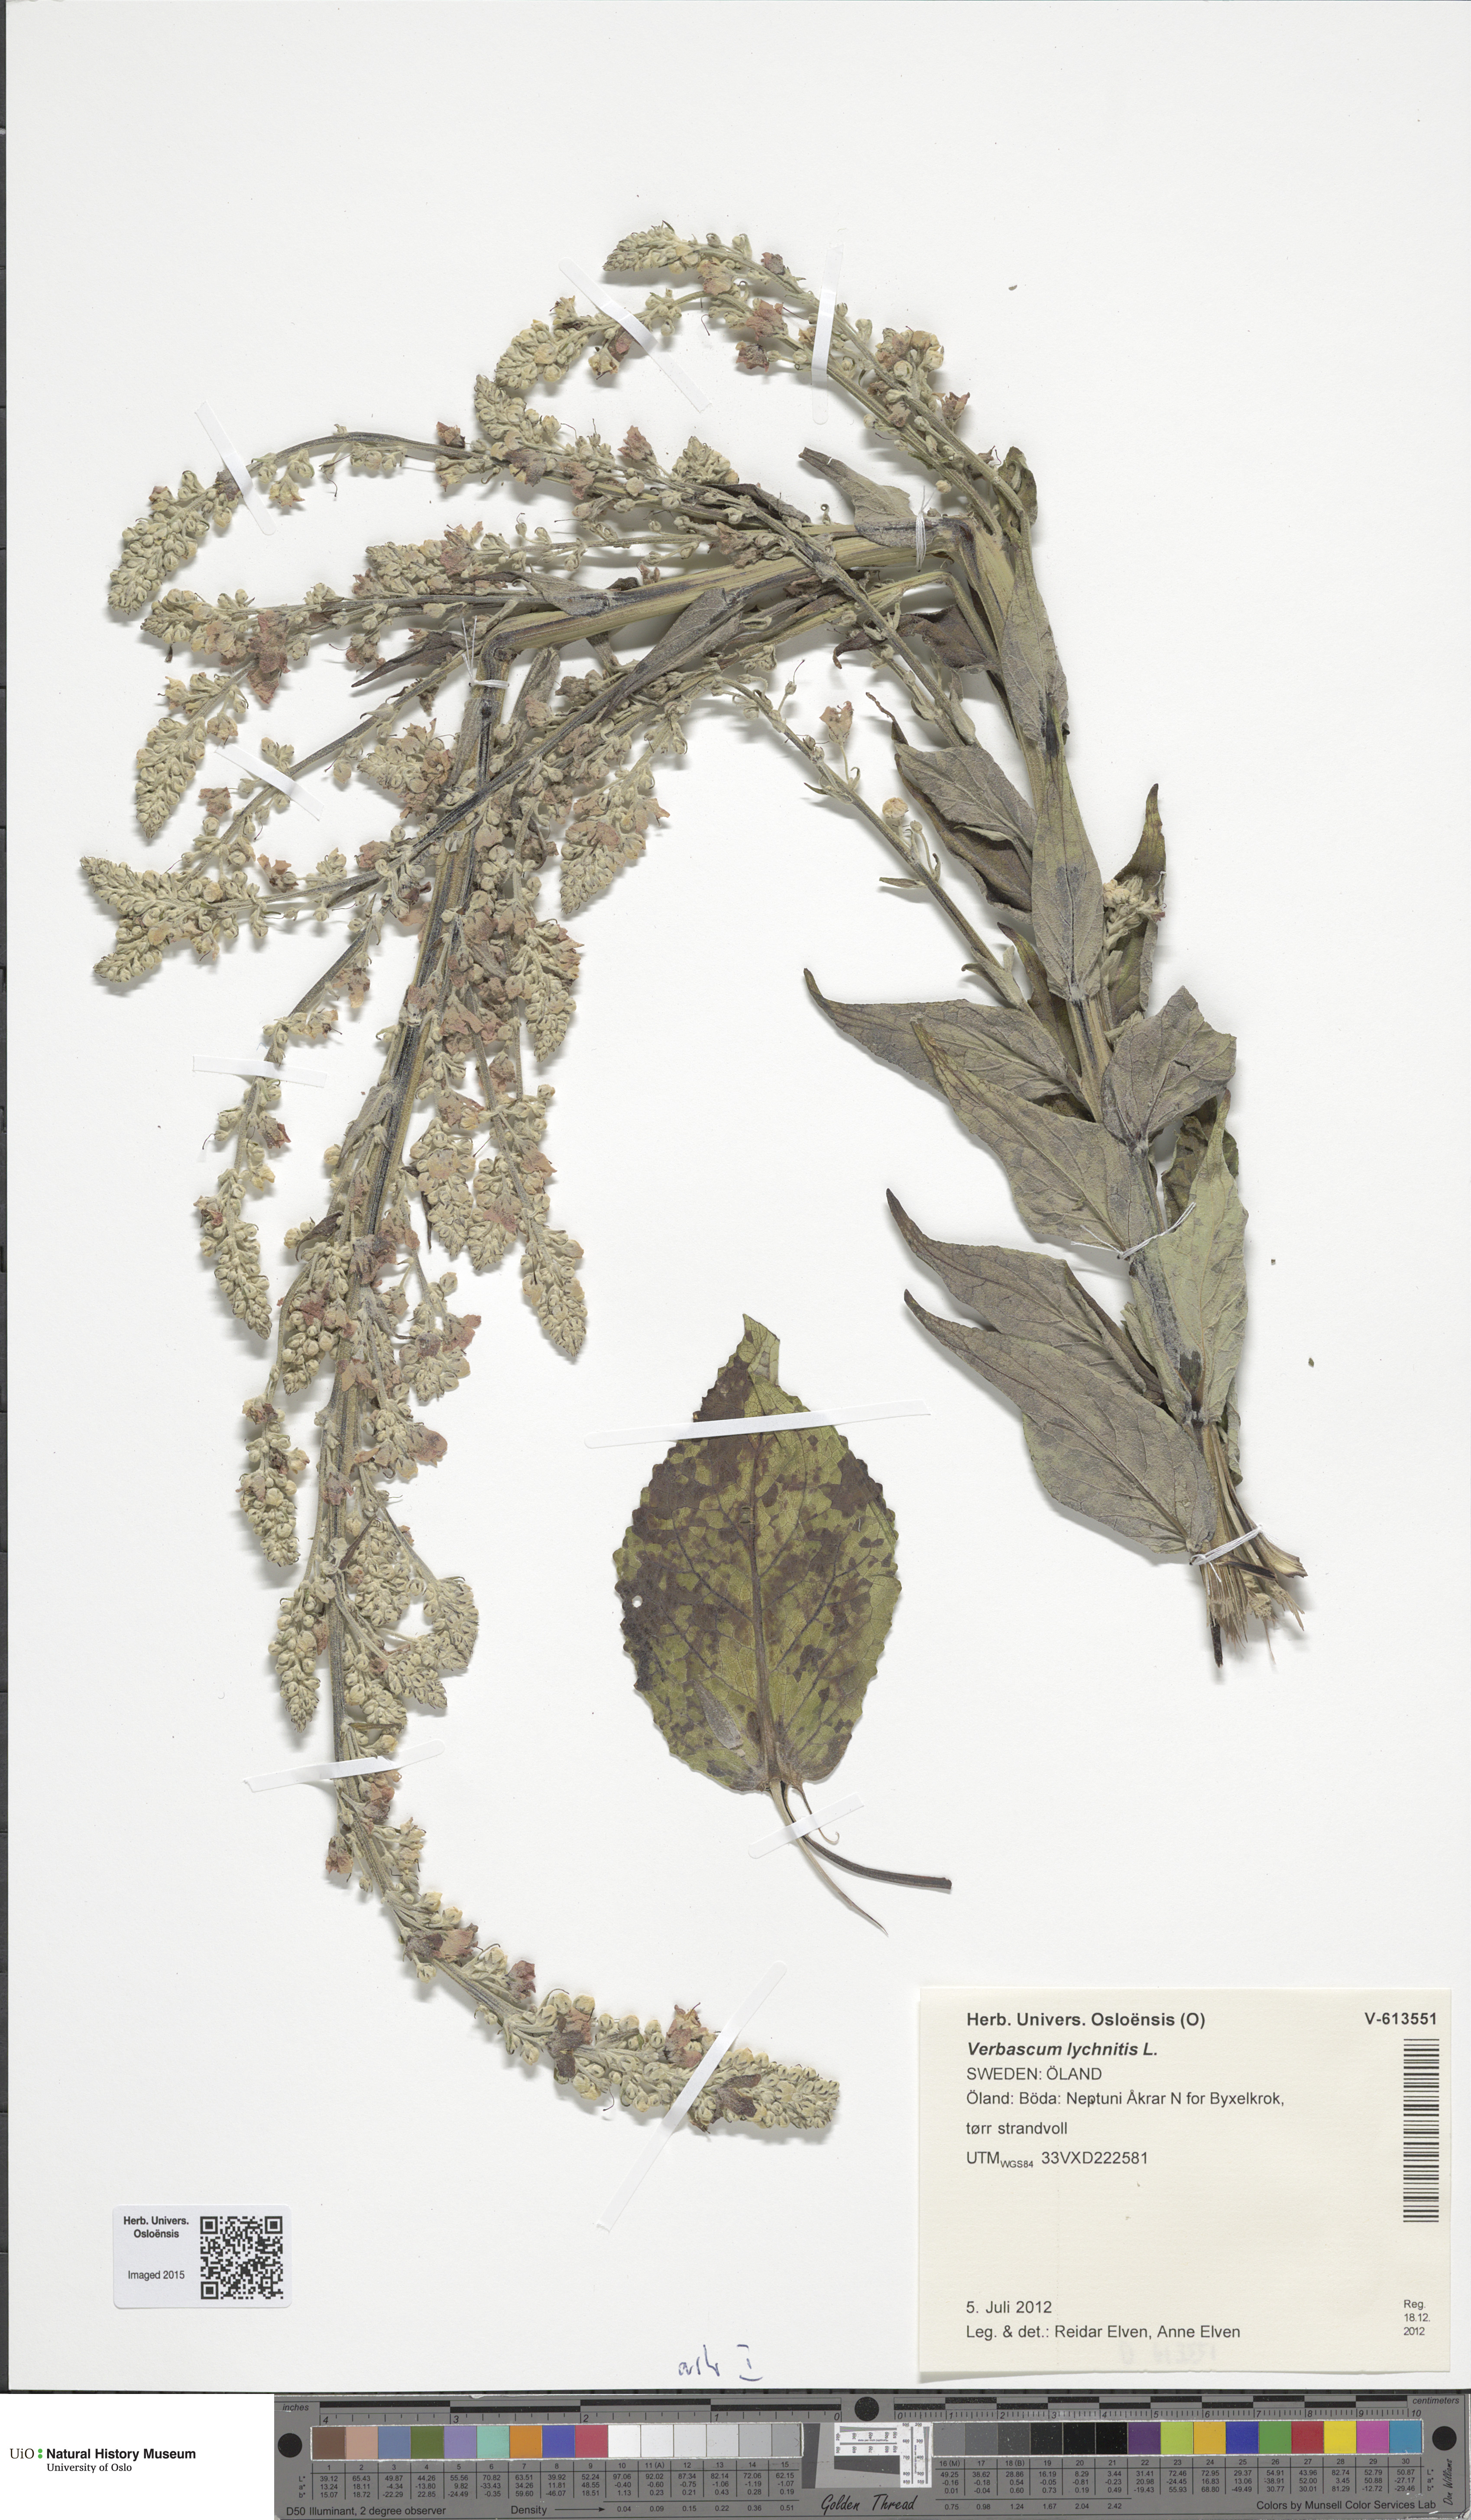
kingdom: Plantae
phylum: Tracheophyta
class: Magnoliopsida
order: Lamiales
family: Scrophulariaceae
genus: Verbascum
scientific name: Verbascum lychnitis
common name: White mullein
